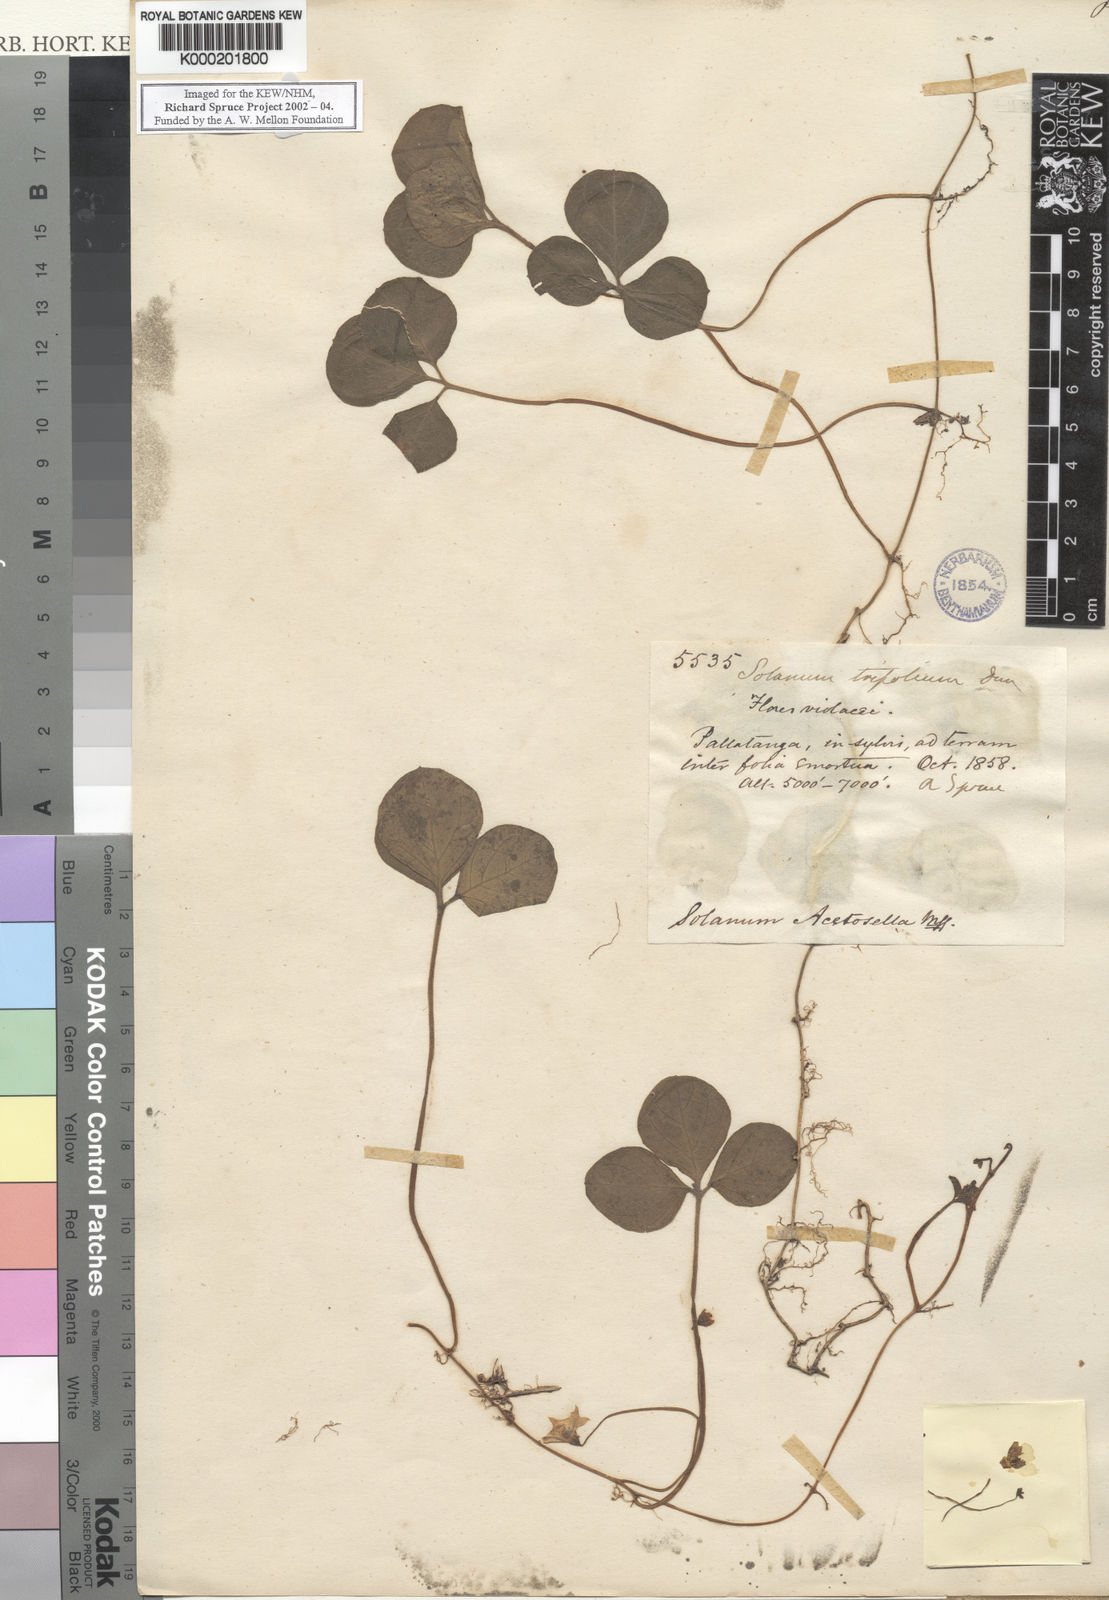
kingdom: Plantae
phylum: Tracheophyta
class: Magnoliopsida
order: Solanales
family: Solanaceae
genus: Solanum
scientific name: Solanum trifolium
